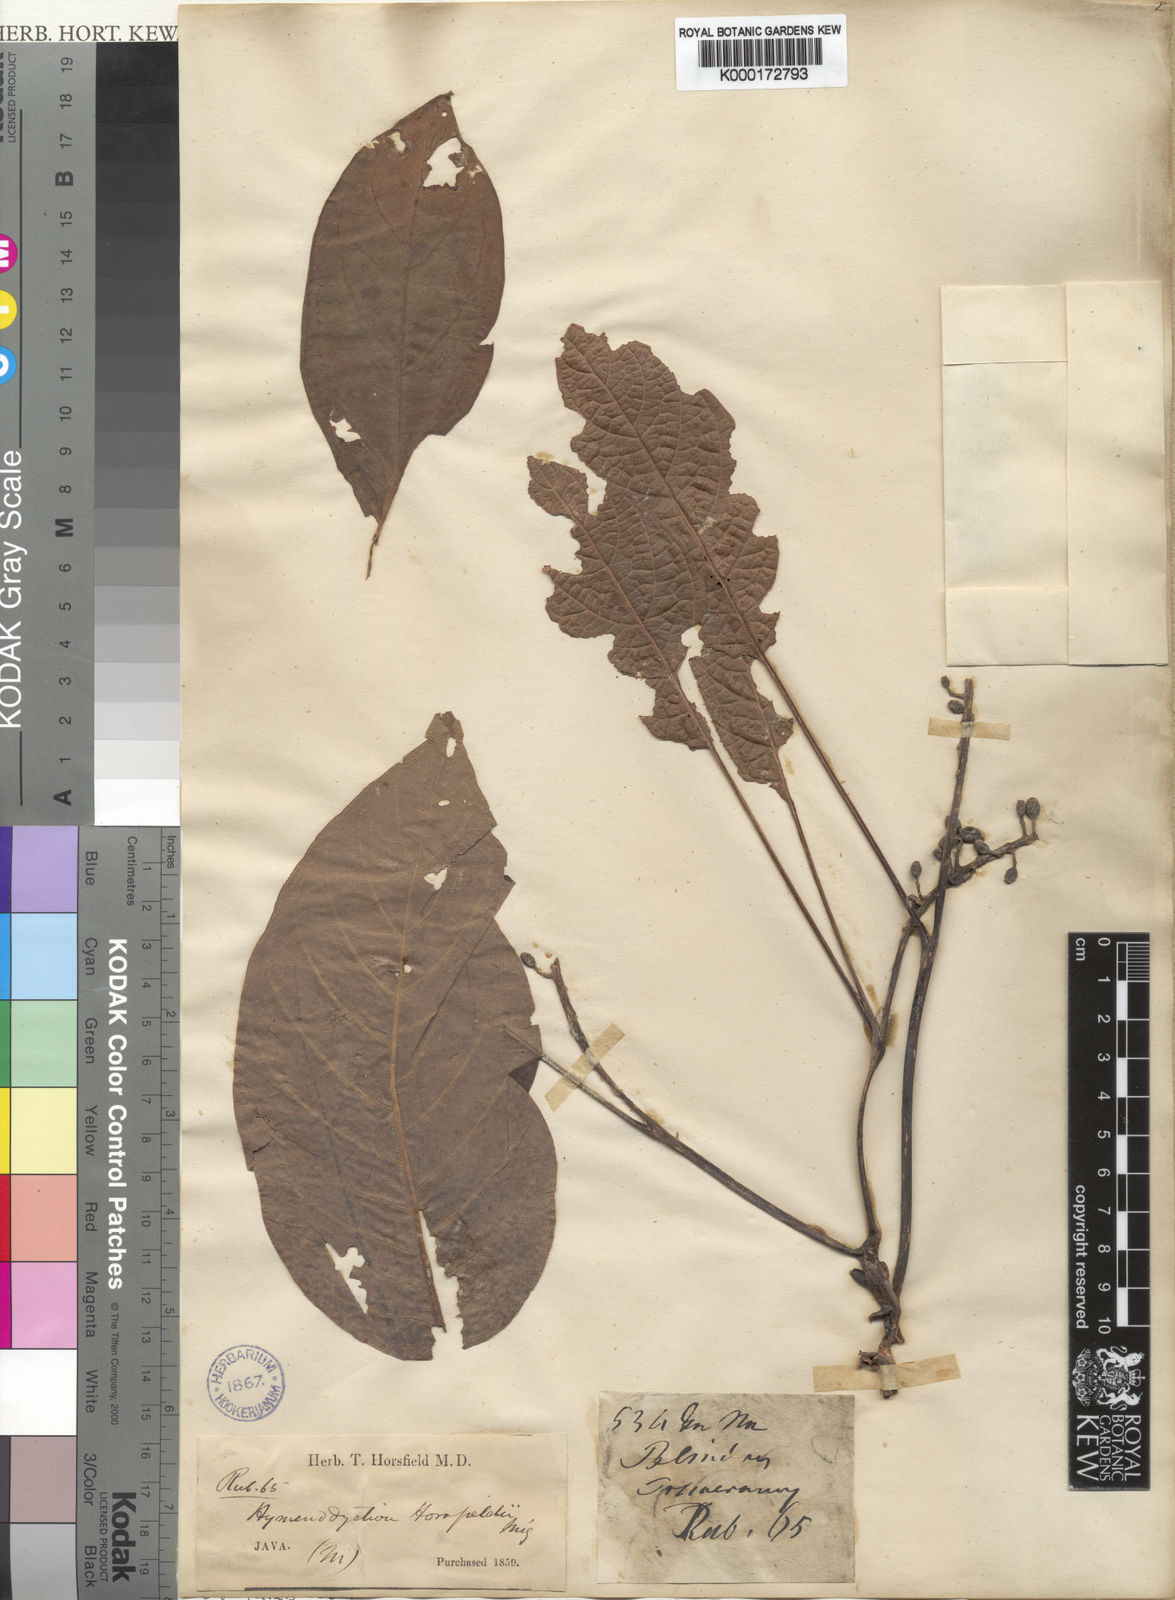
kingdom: Plantae
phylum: Tracheophyta
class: Magnoliopsida
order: Gentianales
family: Rubiaceae
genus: Hymenodictyon
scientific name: Hymenodictyon horsfieldii
